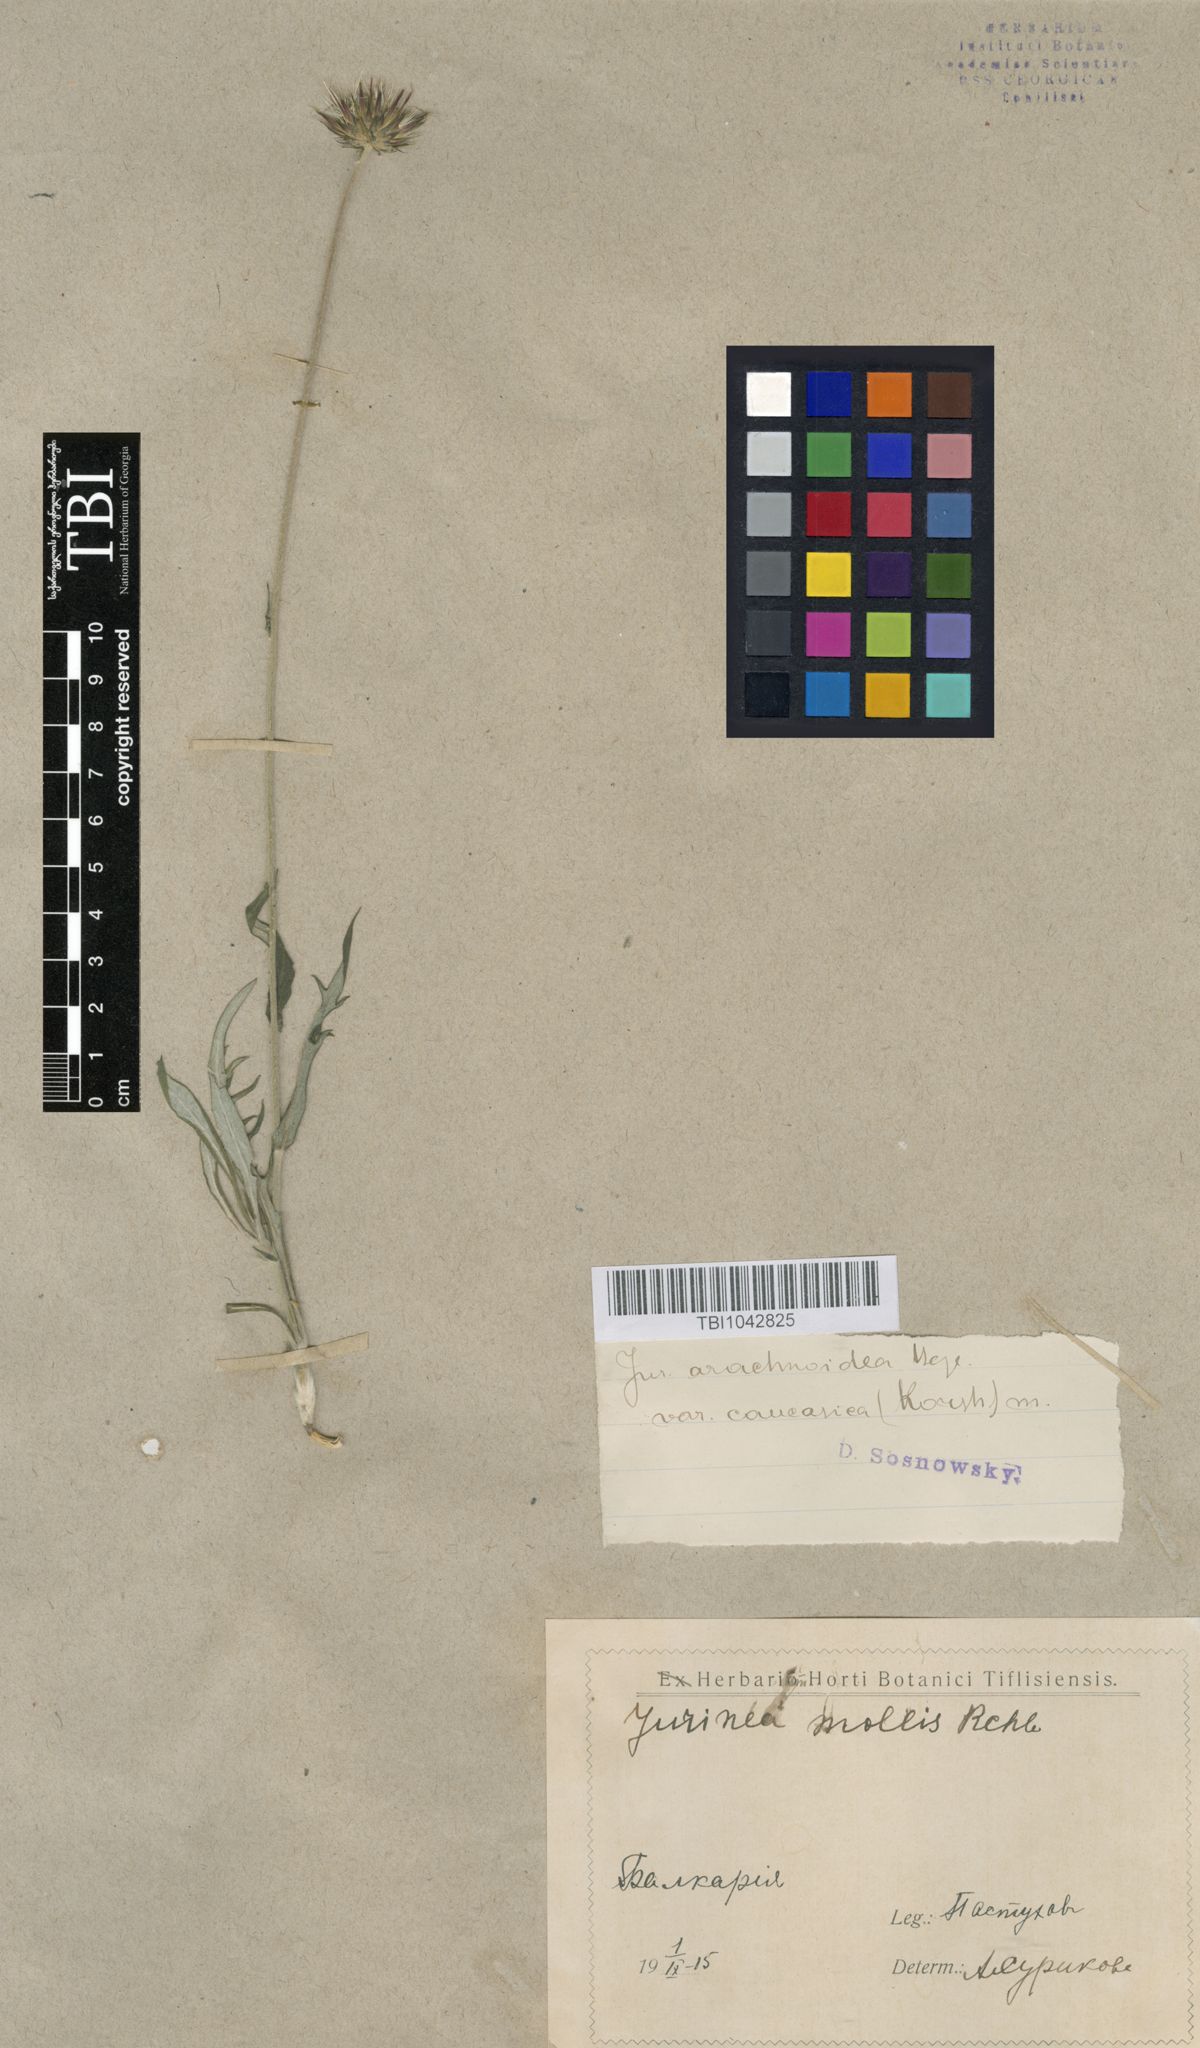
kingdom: Plantae
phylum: Tracheophyta
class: Magnoliopsida
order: Asterales
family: Asteraceae
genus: Jurinea
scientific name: Jurinea blanda
